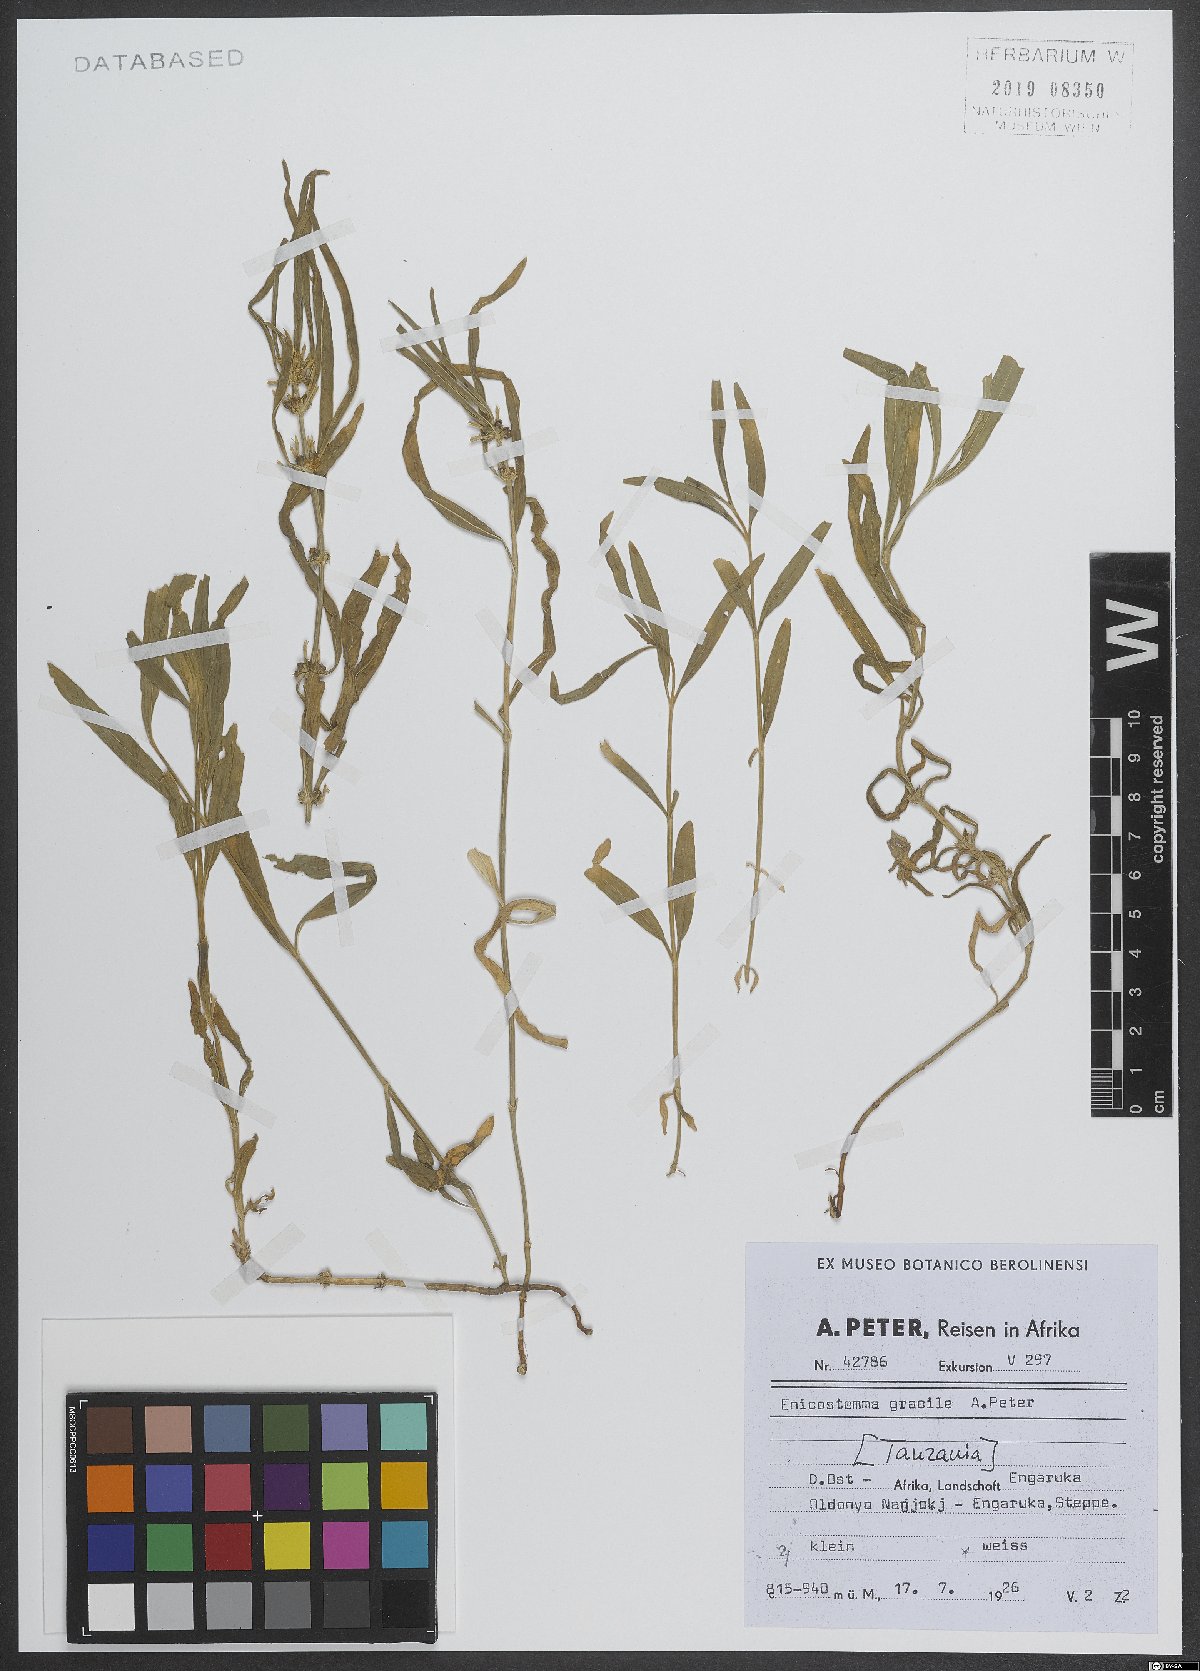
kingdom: Plantae
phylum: Tracheophyta
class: Magnoliopsida
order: Gentianales
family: Gentianaceae
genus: Enicostema
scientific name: Enicostema
